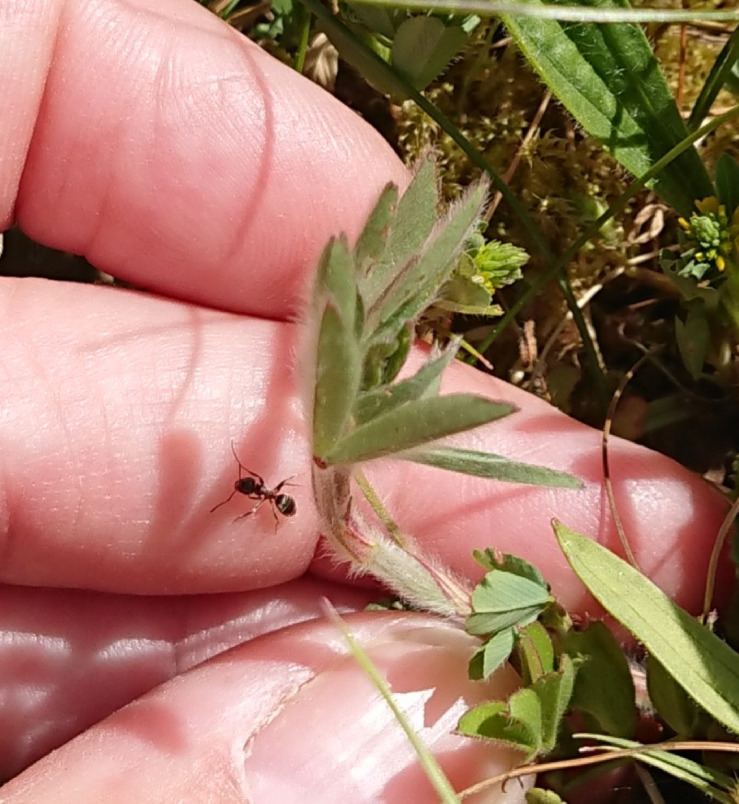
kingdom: Plantae
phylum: Tracheophyta
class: Magnoliopsida
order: Fabales
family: Fabaceae
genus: Trifolium
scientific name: Trifolium arvense
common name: Hare-kløver
